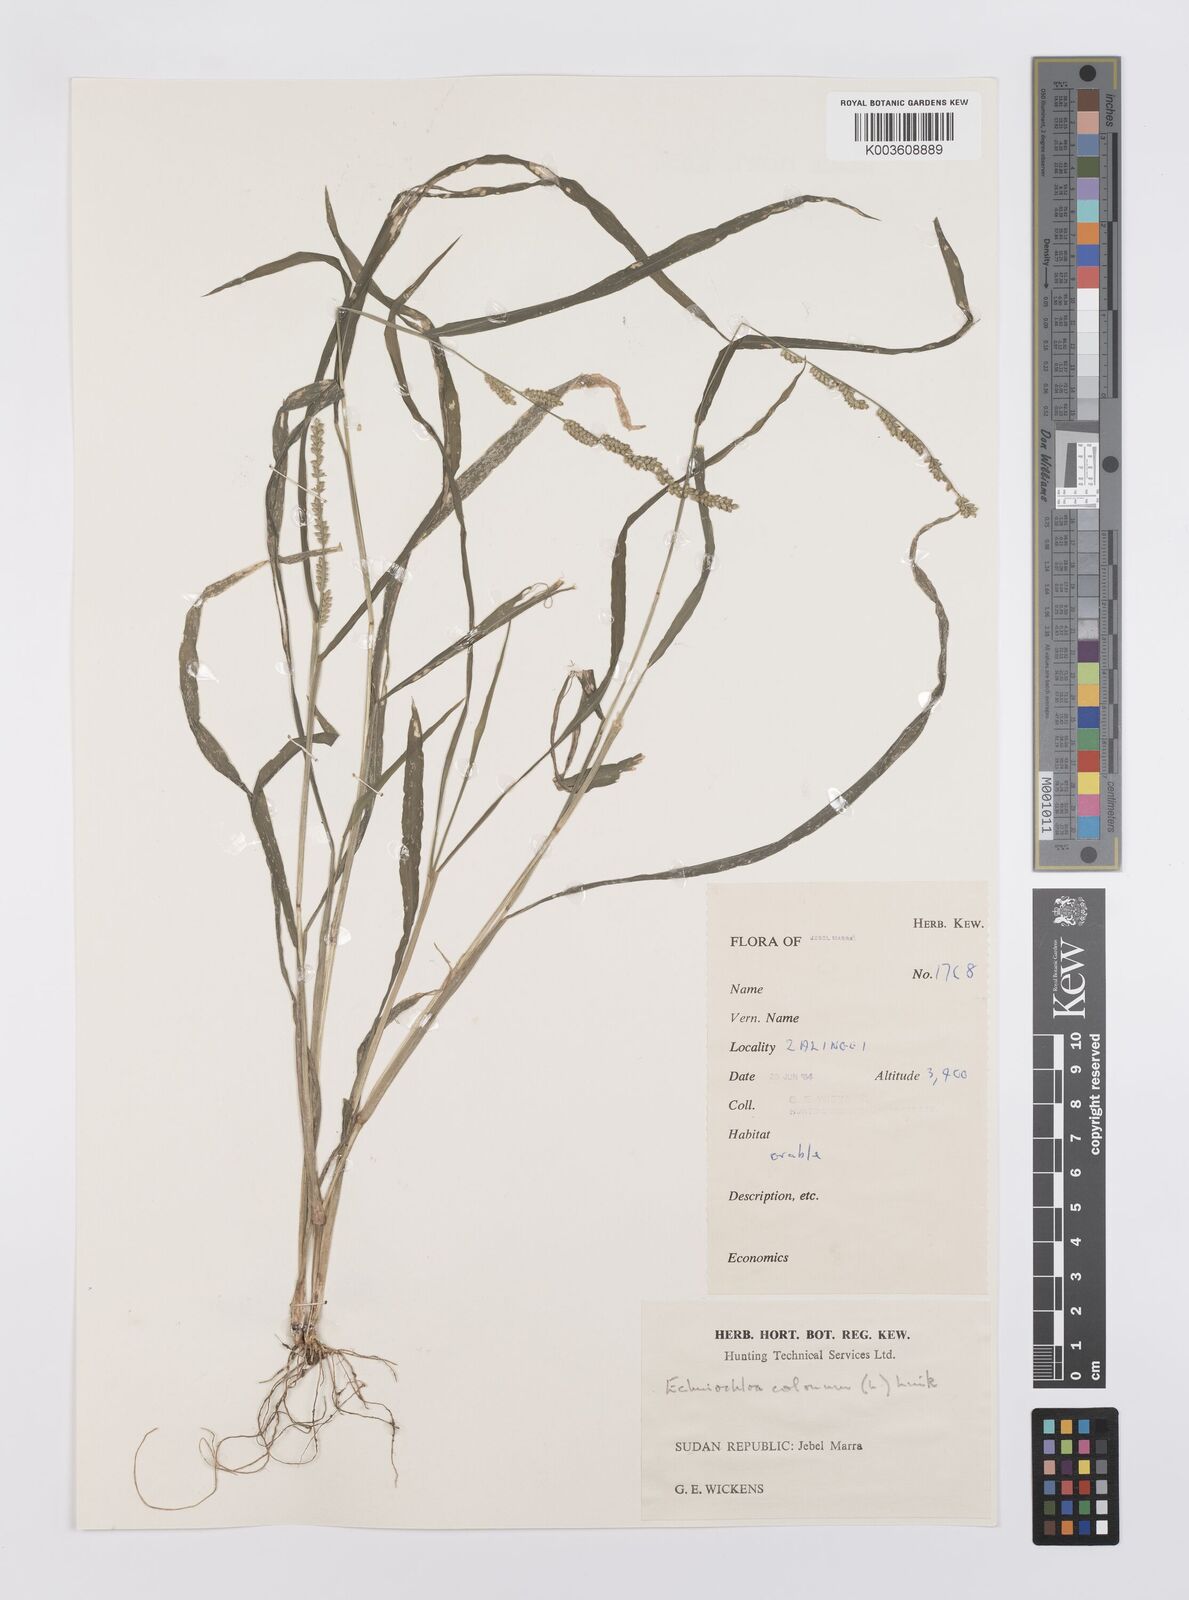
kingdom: Plantae
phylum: Tracheophyta
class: Liliopsida
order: Poales
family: Poaceae
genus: Echinochloa
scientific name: Echinochloa colonum
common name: Jungle rice
